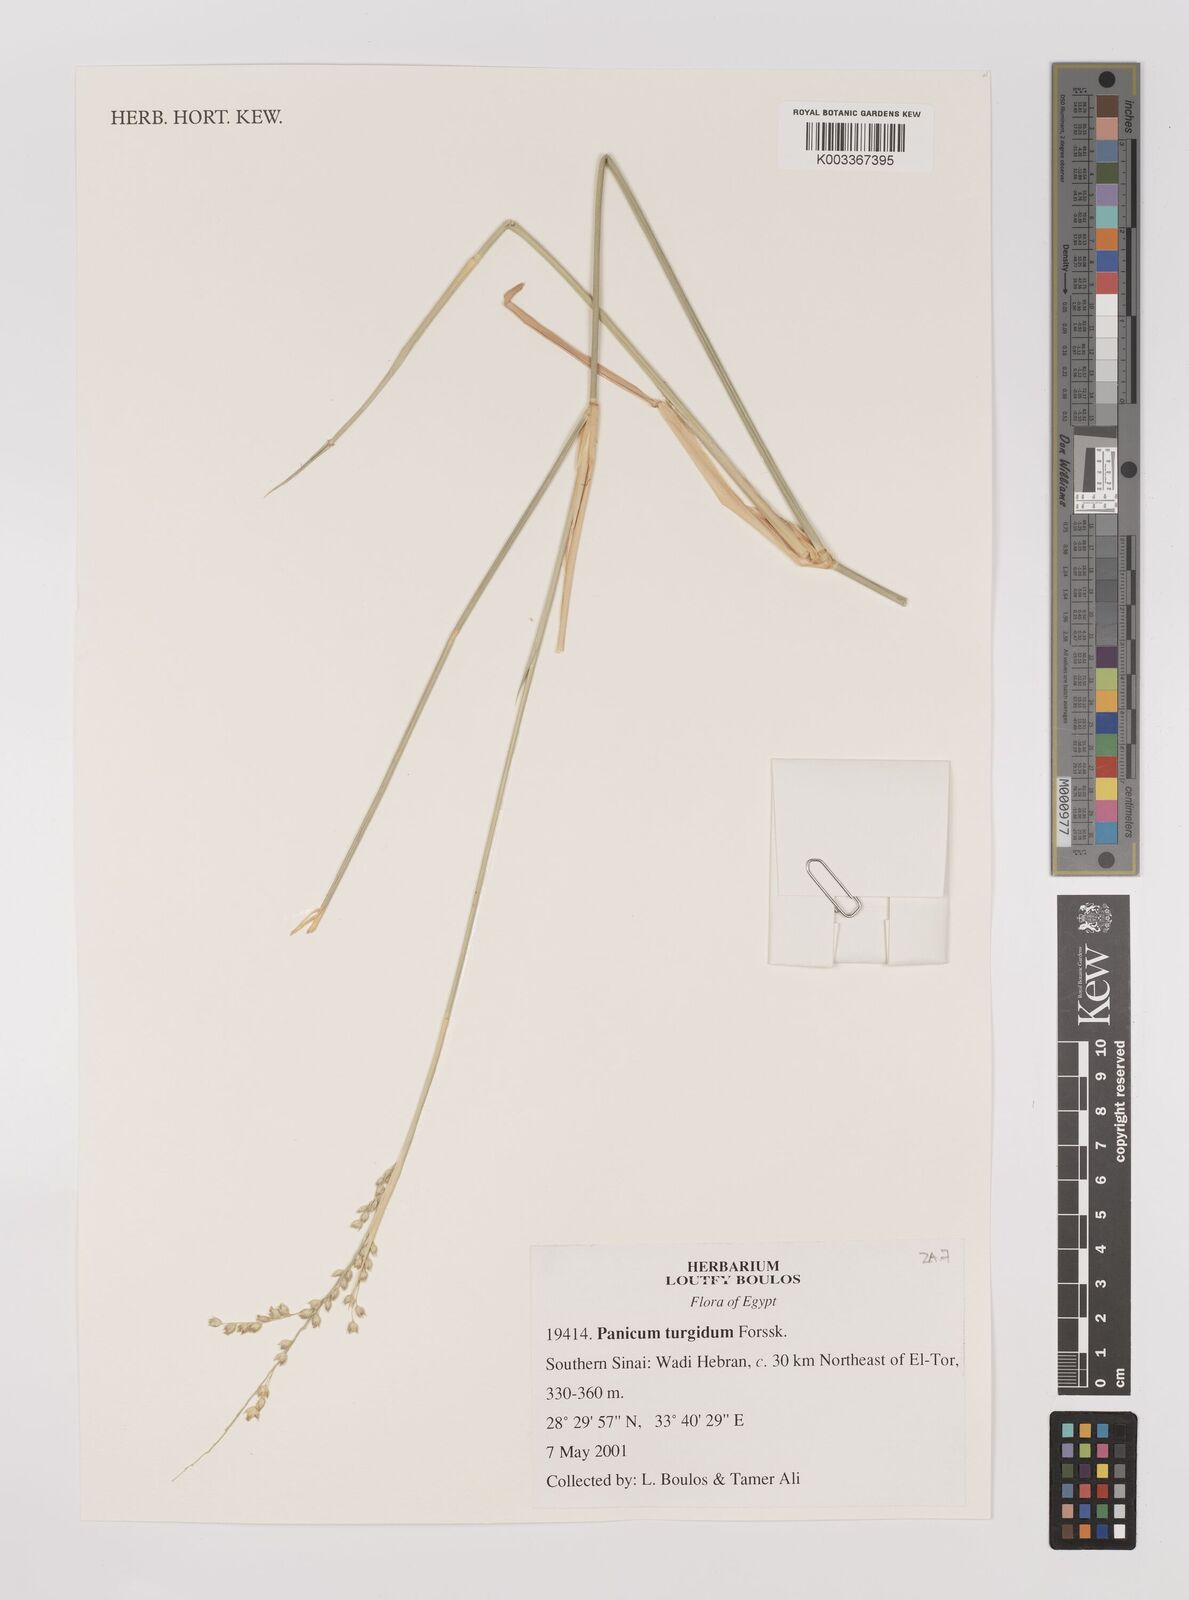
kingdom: Plantae
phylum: Tracheophyta
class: Liliopsida
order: Poales
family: Poaceae
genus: Panicum
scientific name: Panicum turgidum
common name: Desert grass
